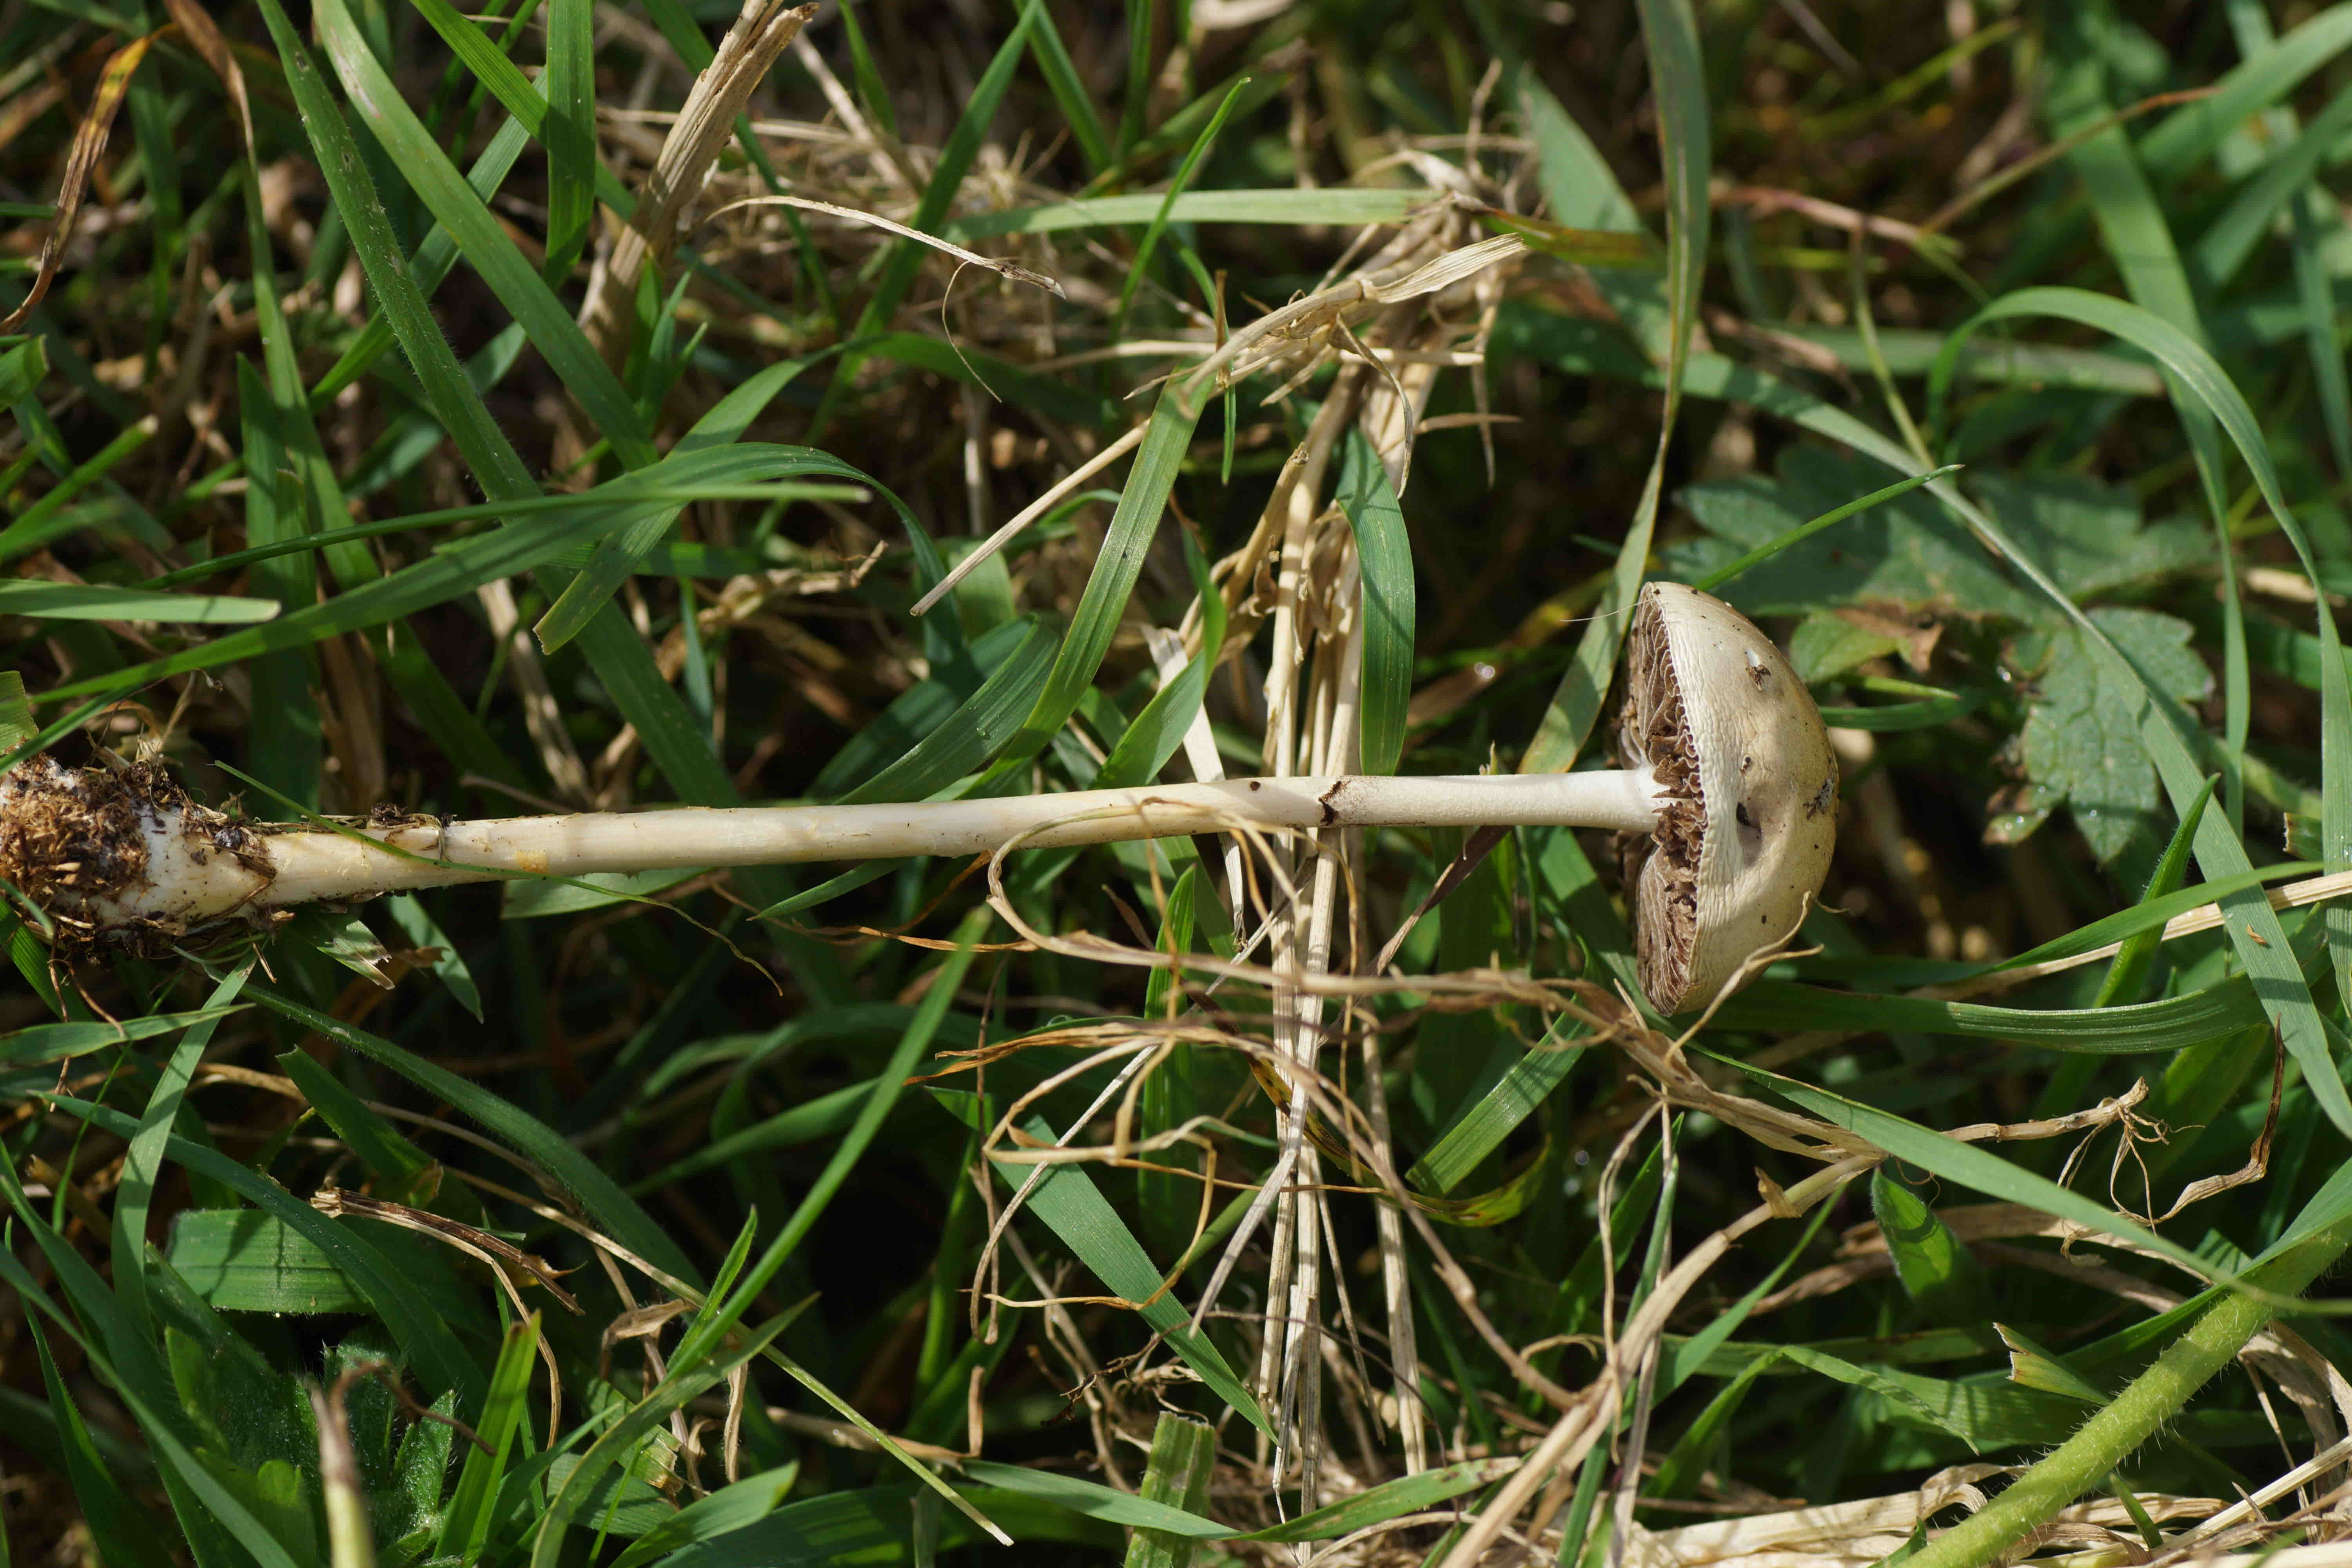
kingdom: Fungi
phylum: Basidiomycota
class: Agaricomycetes
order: Agaricales
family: Strophariaceae
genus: Protostropharia
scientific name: Protostropharia semiglobata
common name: halvkugleformet bredblad
